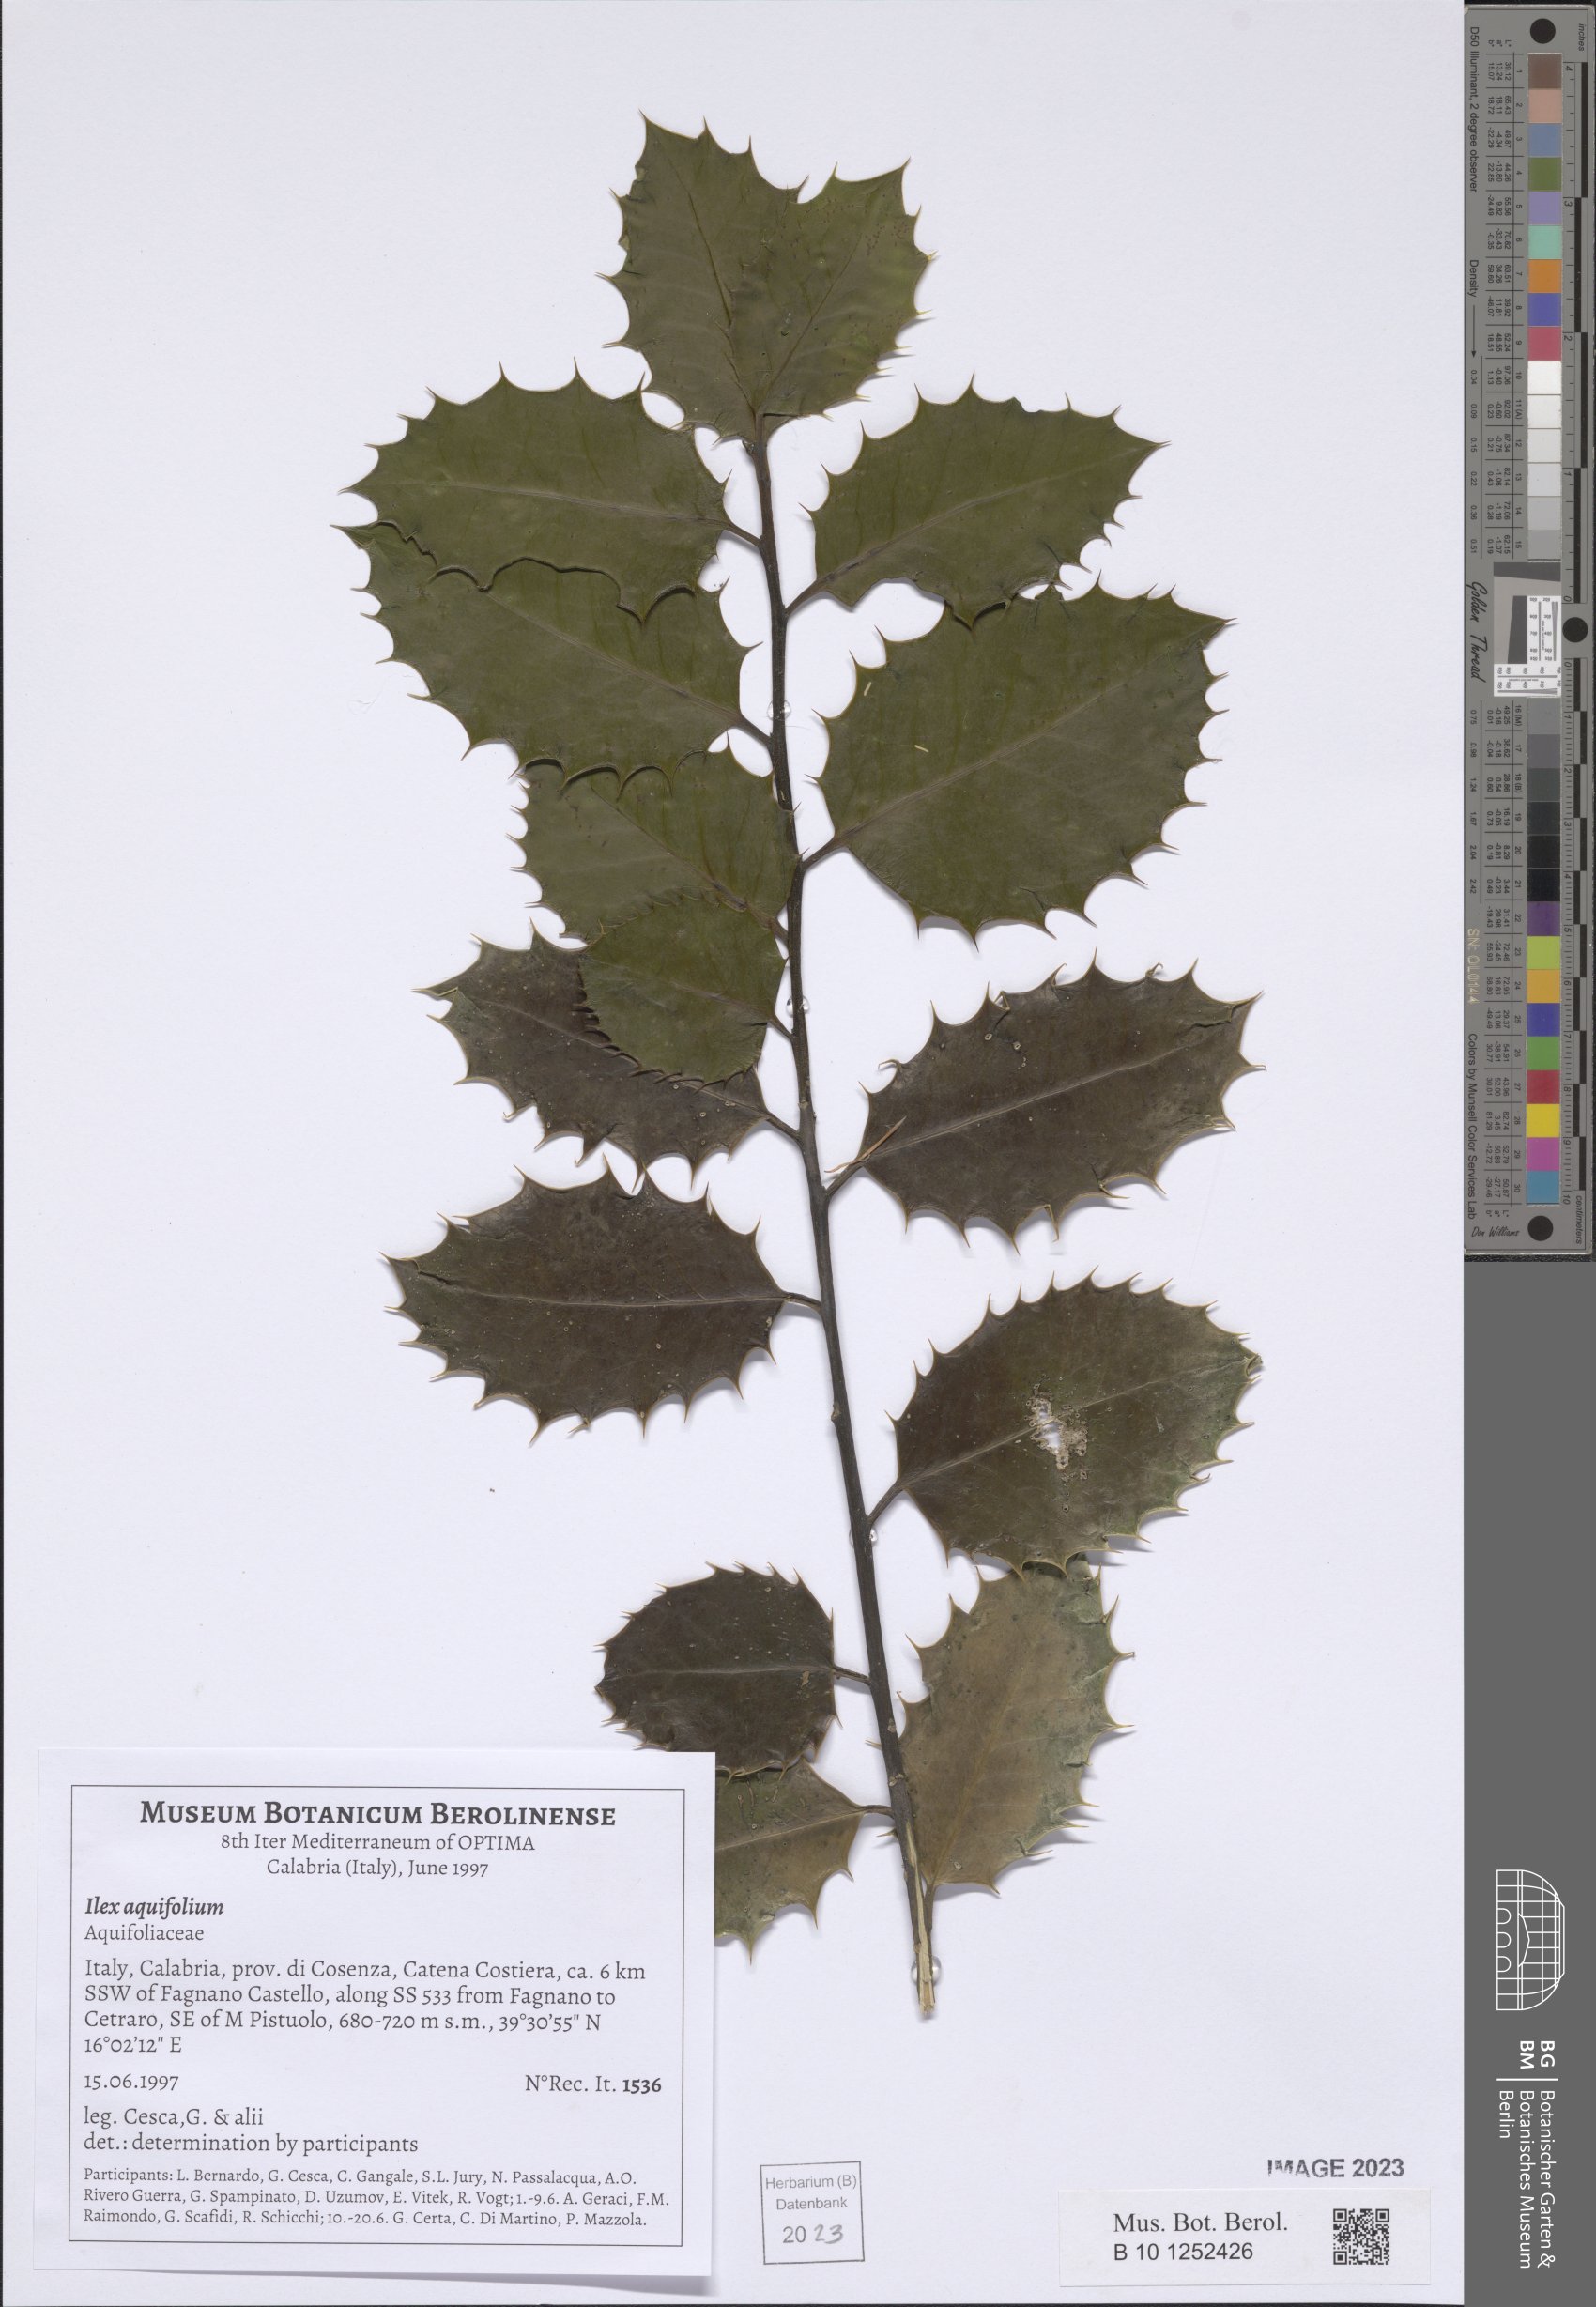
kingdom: Plantae
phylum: Tracheophyta
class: Magnoliopsida
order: Aquifoliales
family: Aquifoliaceae
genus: Ilex
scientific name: Ilex aquifolium
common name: English holly
